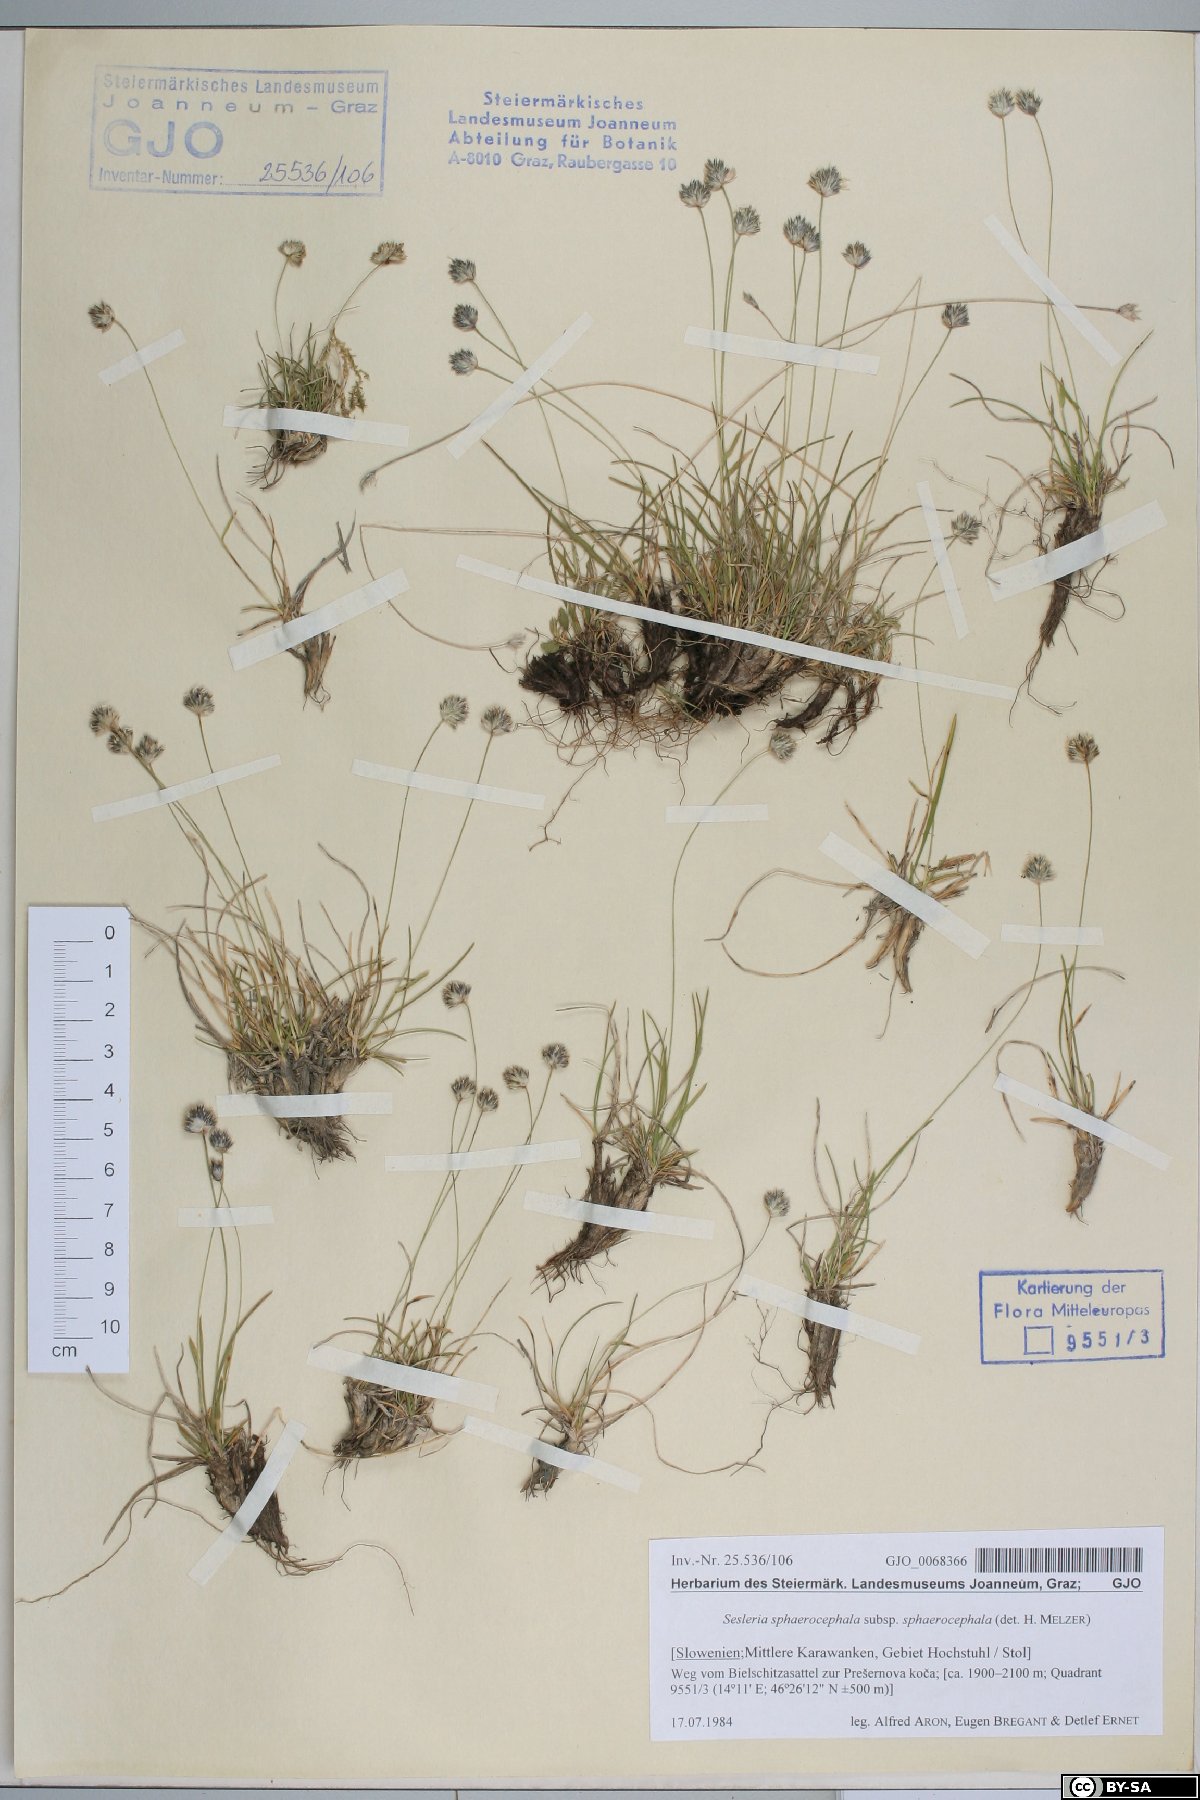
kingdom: Plantae
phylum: Tracheophyta
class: Liliopsida
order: Poales
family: Poaceae
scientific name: Poaceae
